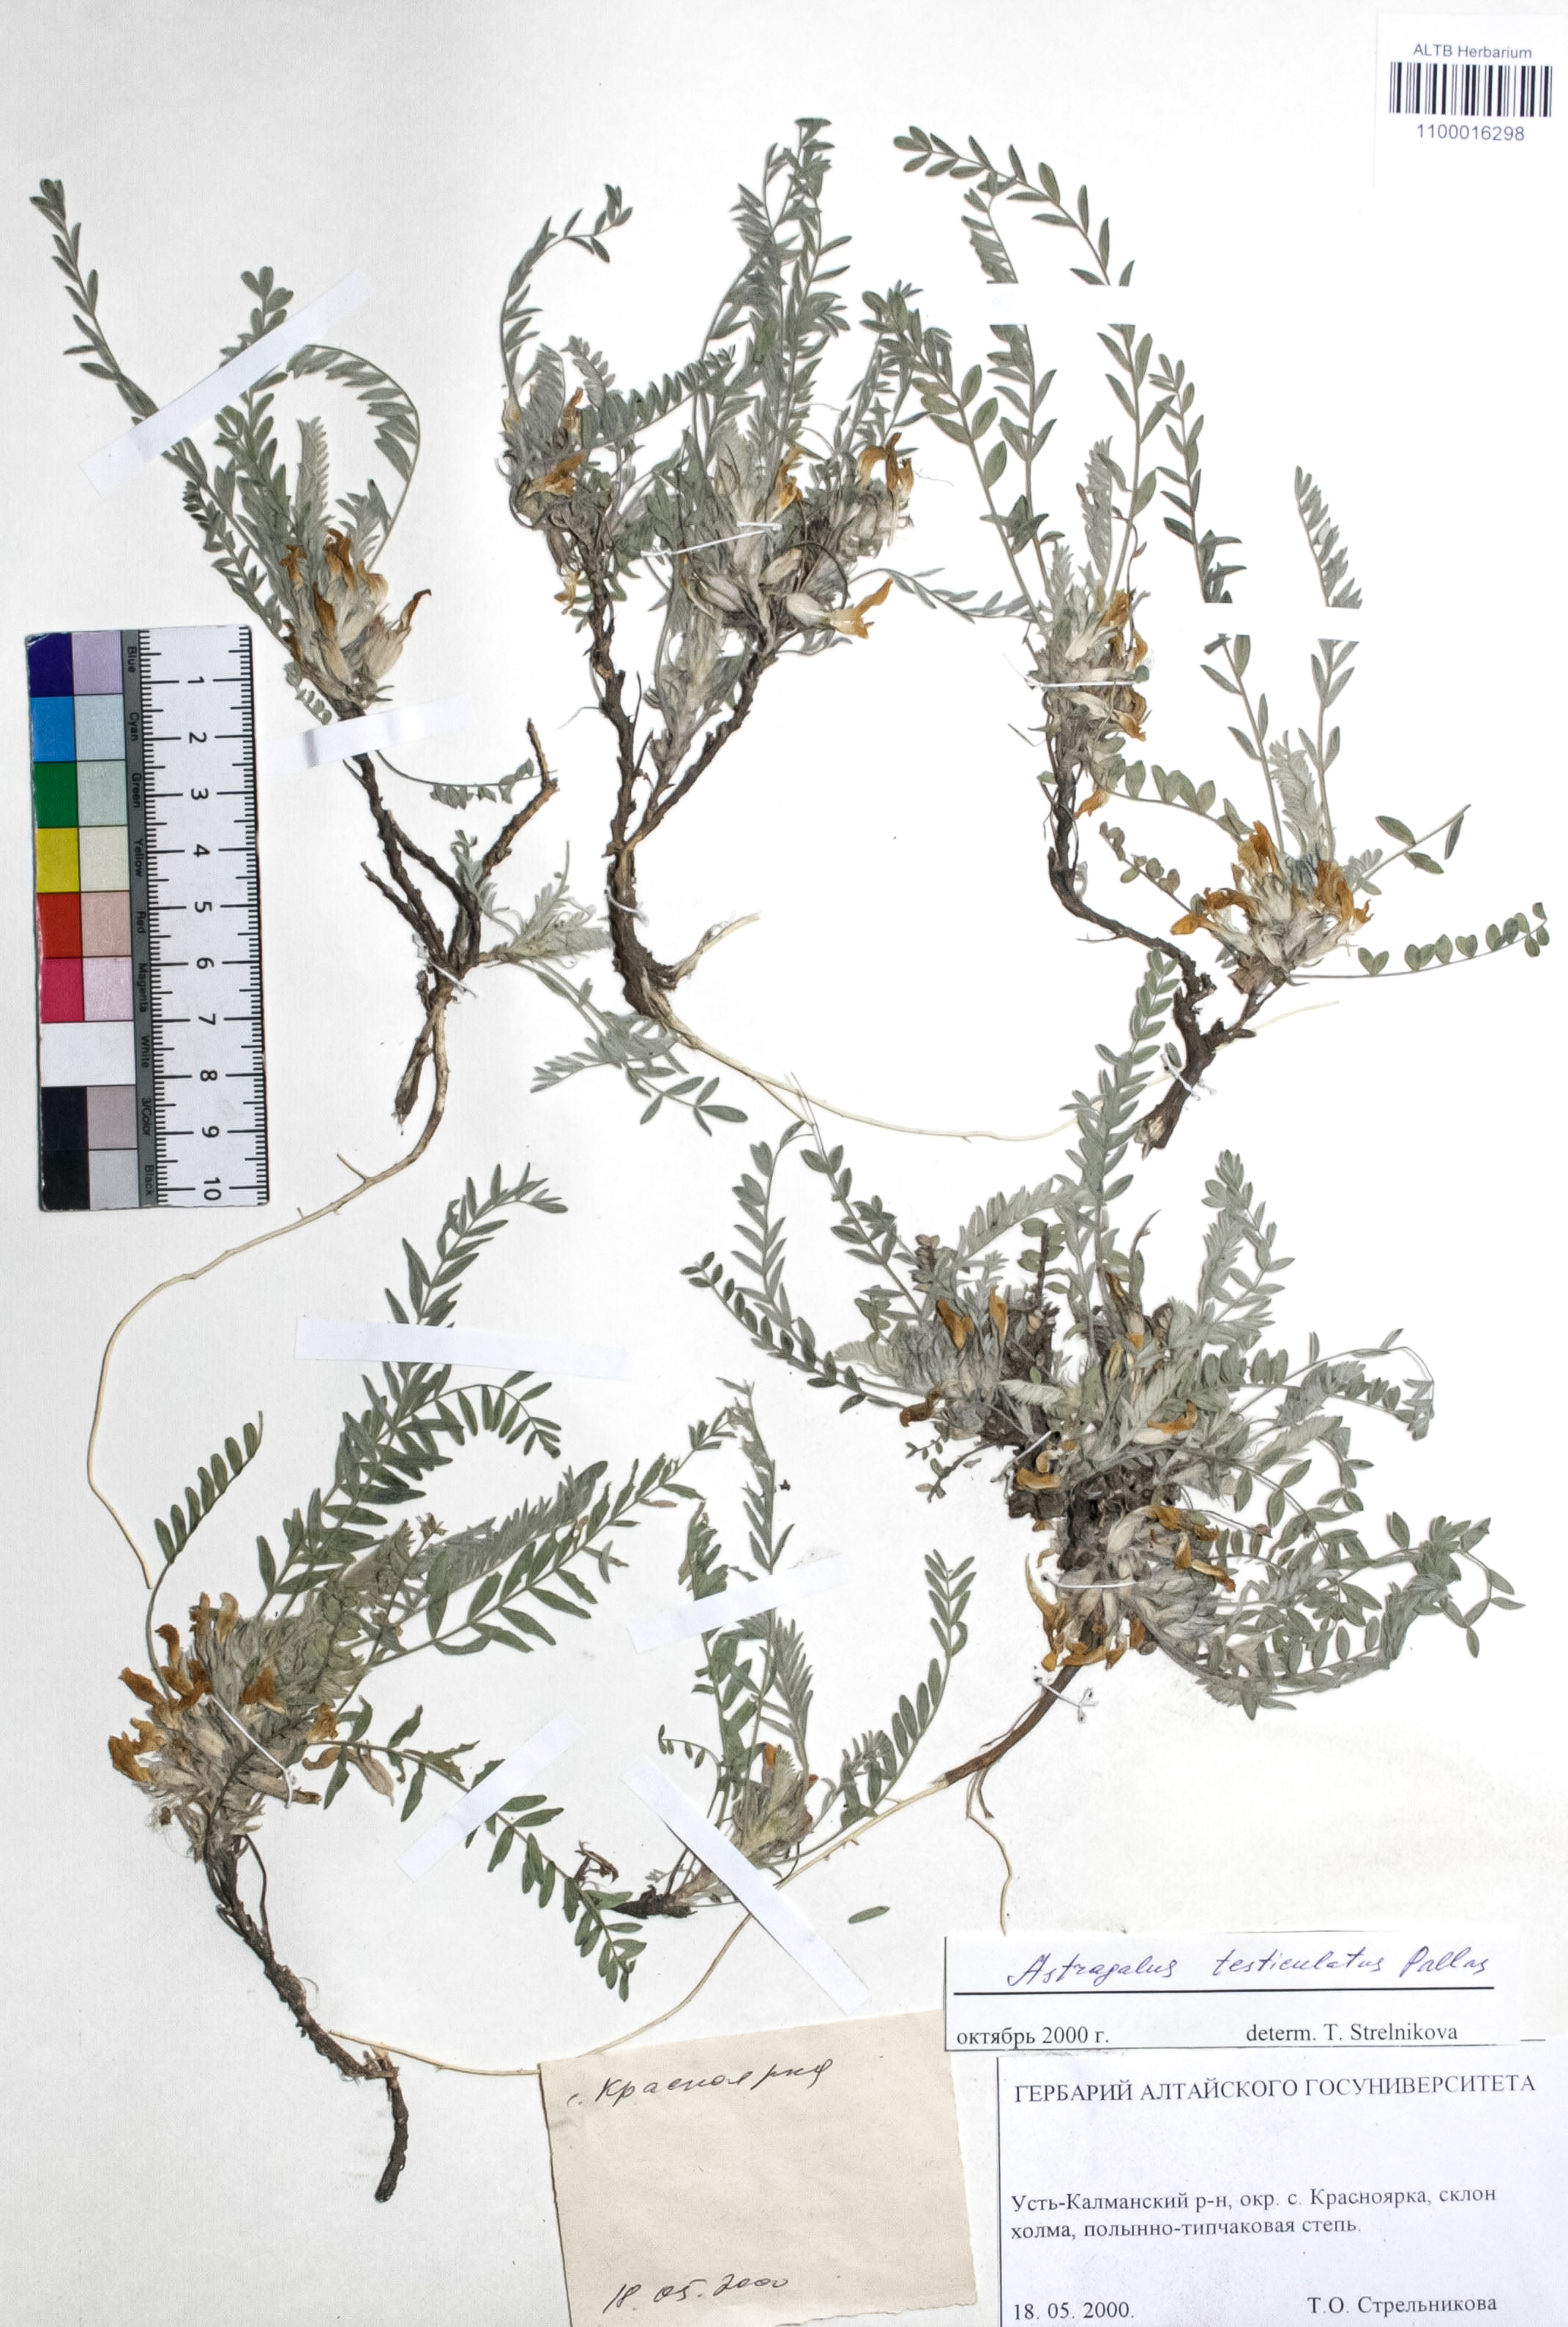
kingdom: Plantae
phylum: Tracheophyta
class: Magnoliopsida
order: Fabales
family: Fabaceae
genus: Astragalus
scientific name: Astragalus testiculatus
